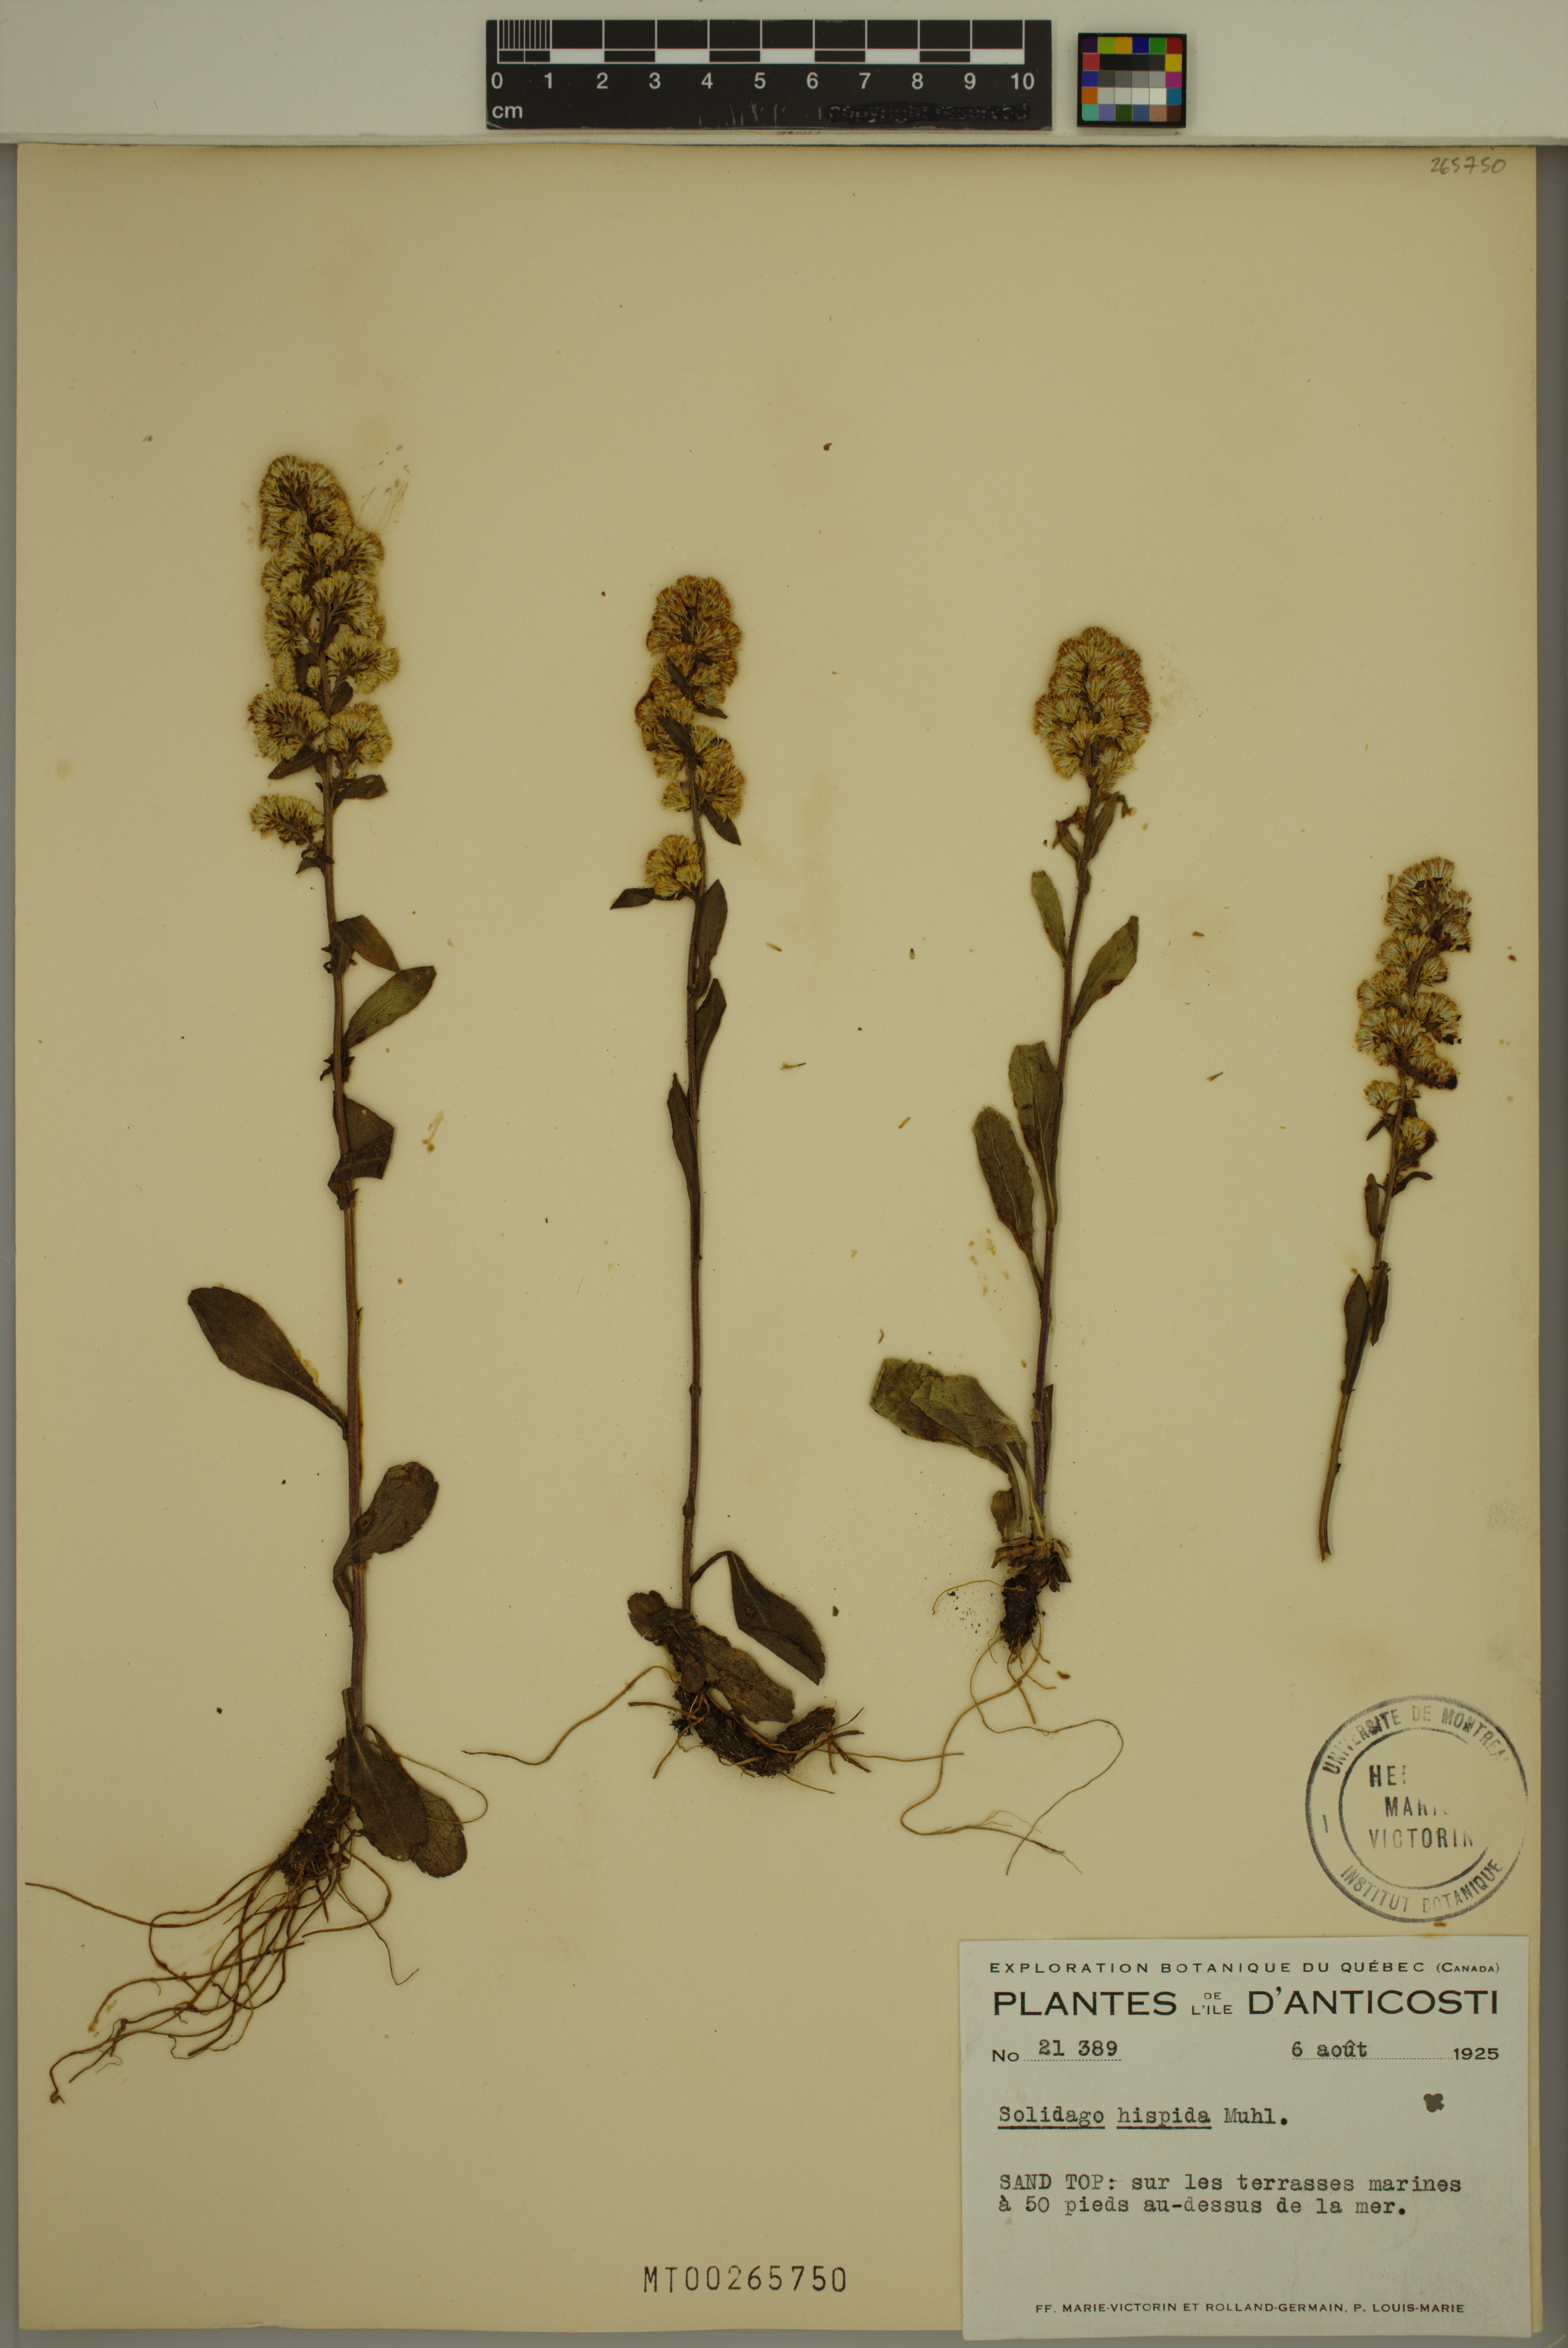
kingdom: Plantae
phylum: Tracheophyta
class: Magnoliopsida
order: Asterales
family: Asteraceae
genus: Solidago
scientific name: Solidago hispida
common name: Hairy goldenrod
